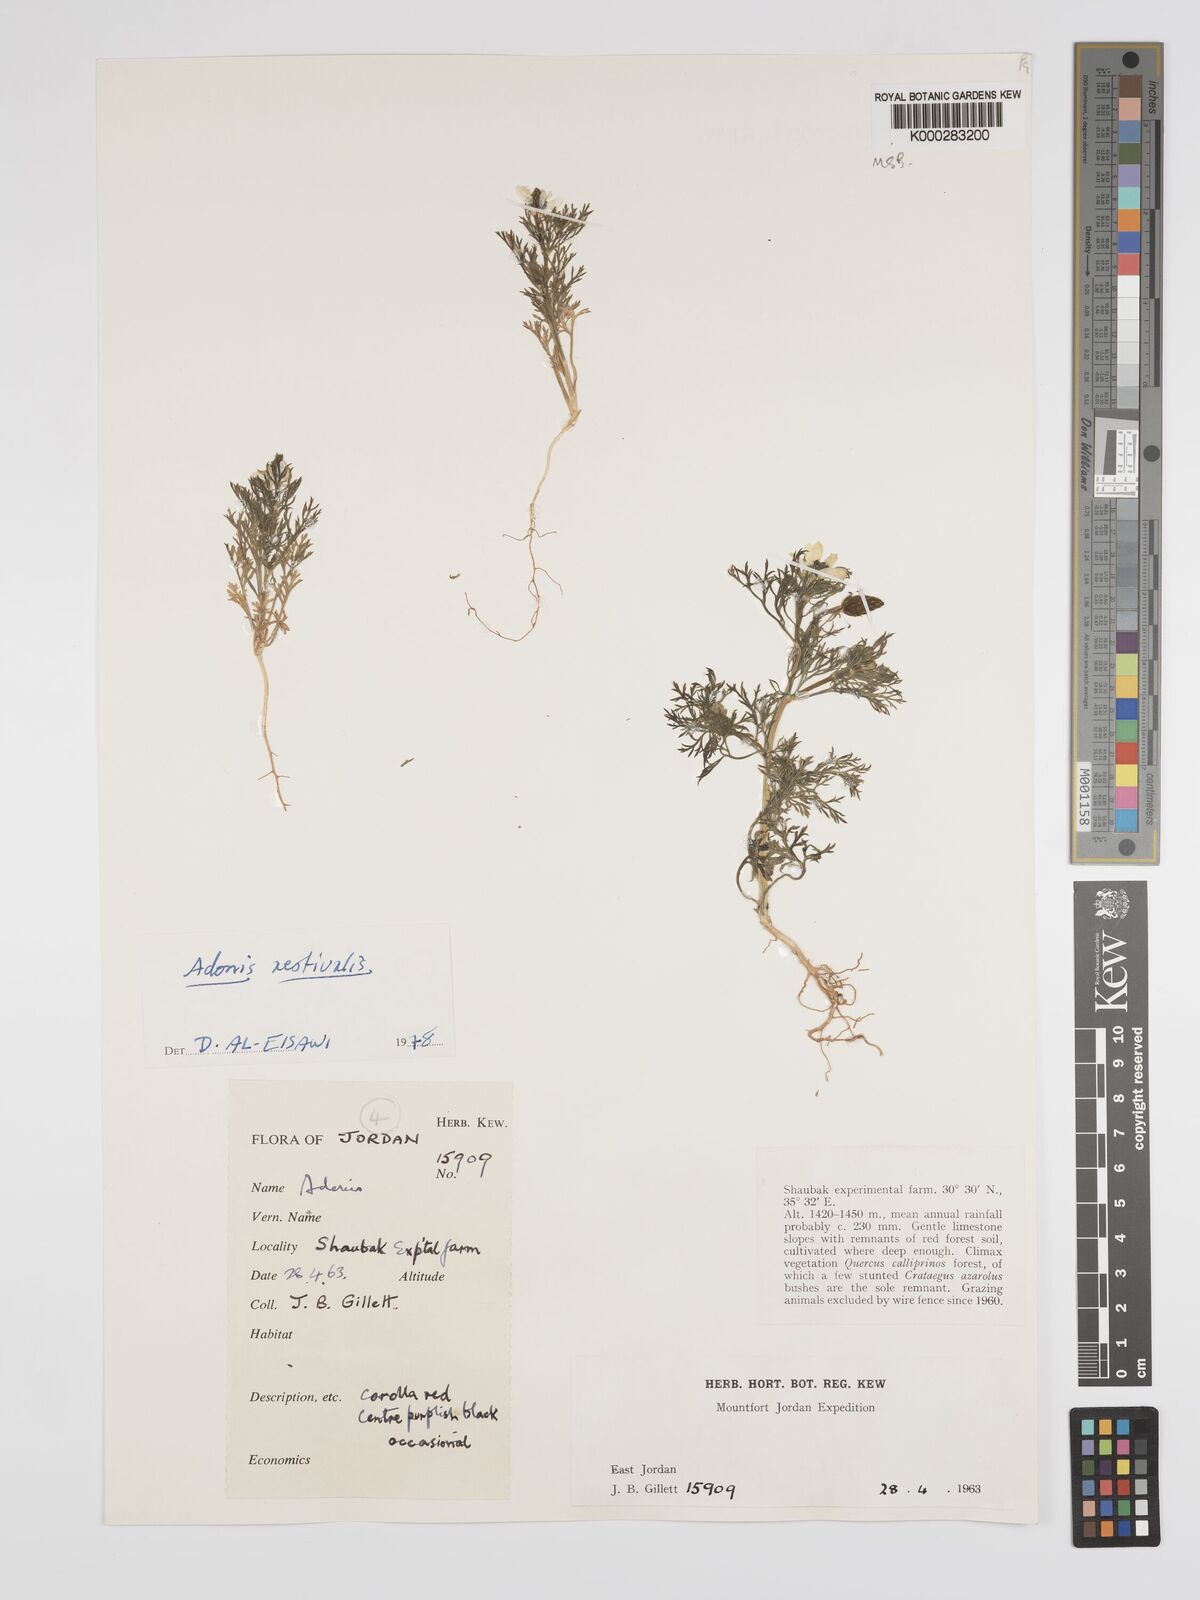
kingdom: Plantae
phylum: Tracheophyta
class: Magnoliopsida
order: Ranunculales
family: Ranunculaceae
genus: Adonis
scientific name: Adonis aestivalis
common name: Summer pheasant's-eye
